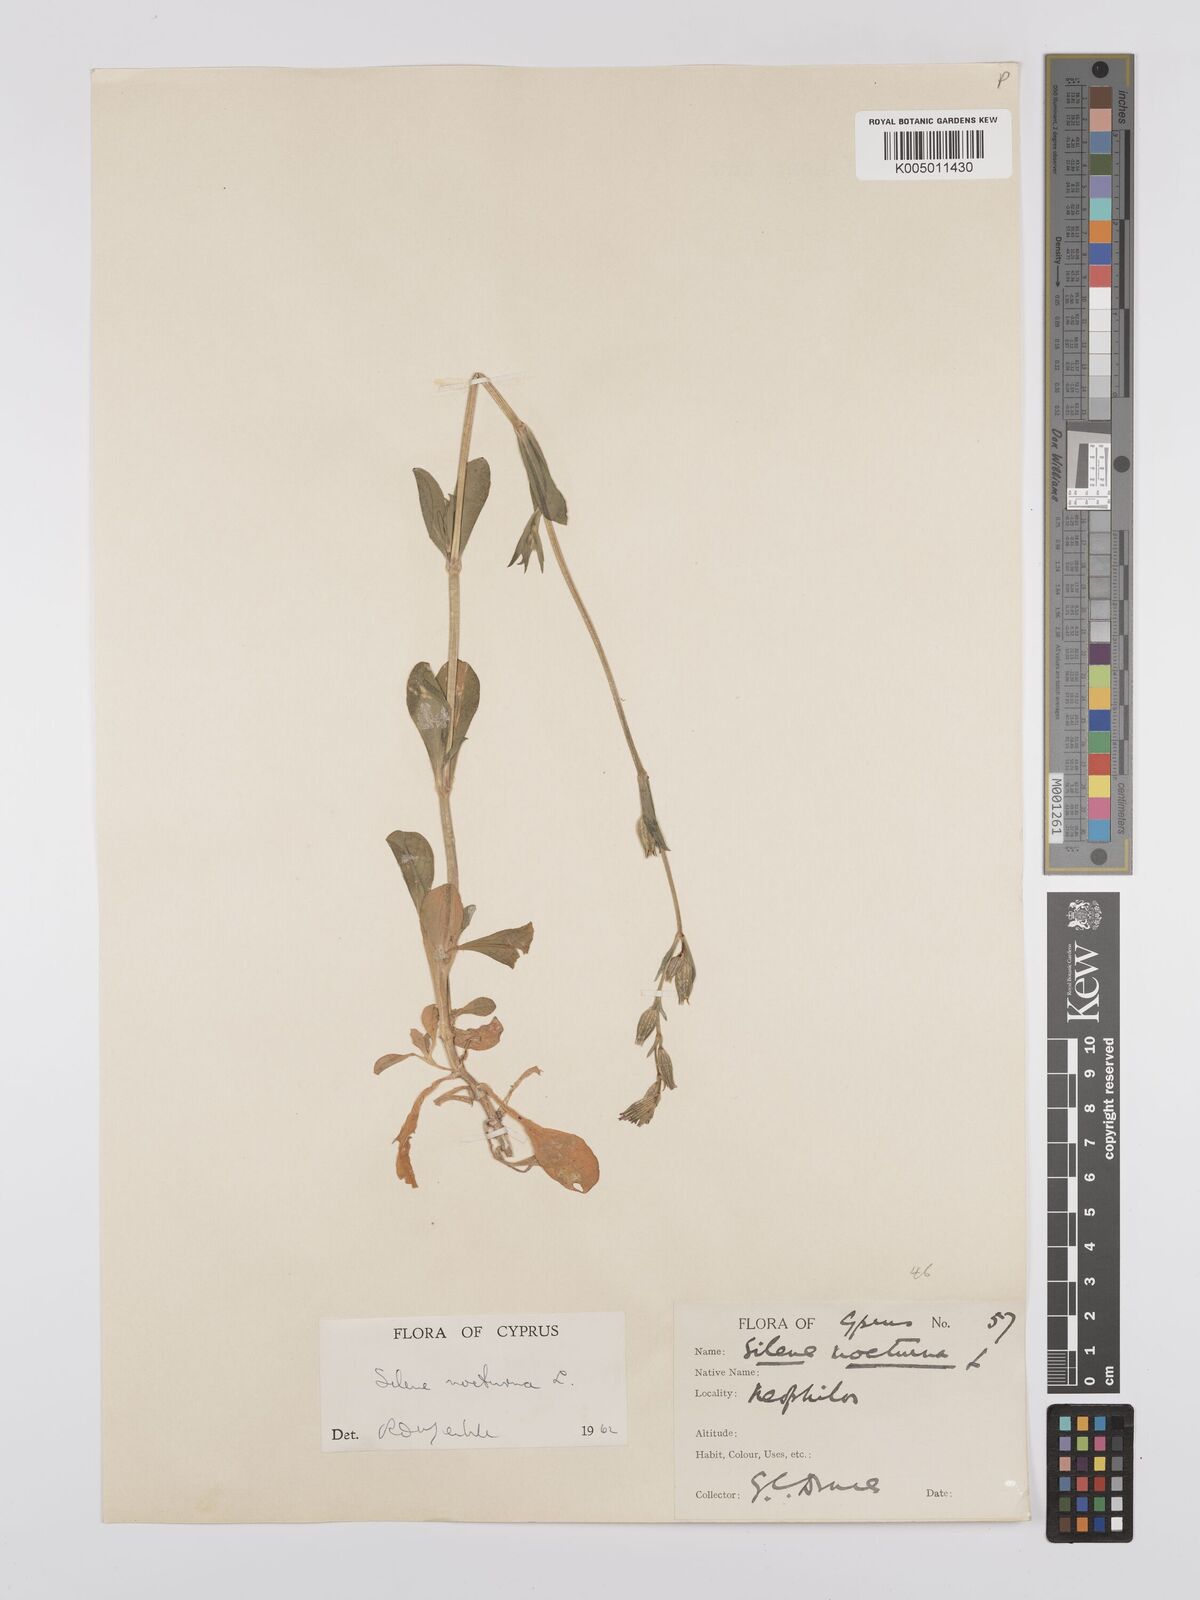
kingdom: Plantae
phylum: Tracheophyta
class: Magnoliopsida
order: Caryophyllales
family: Caryophyllaceae
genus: Silene
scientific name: Silene nocturna
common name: Mediterranean catchfly
